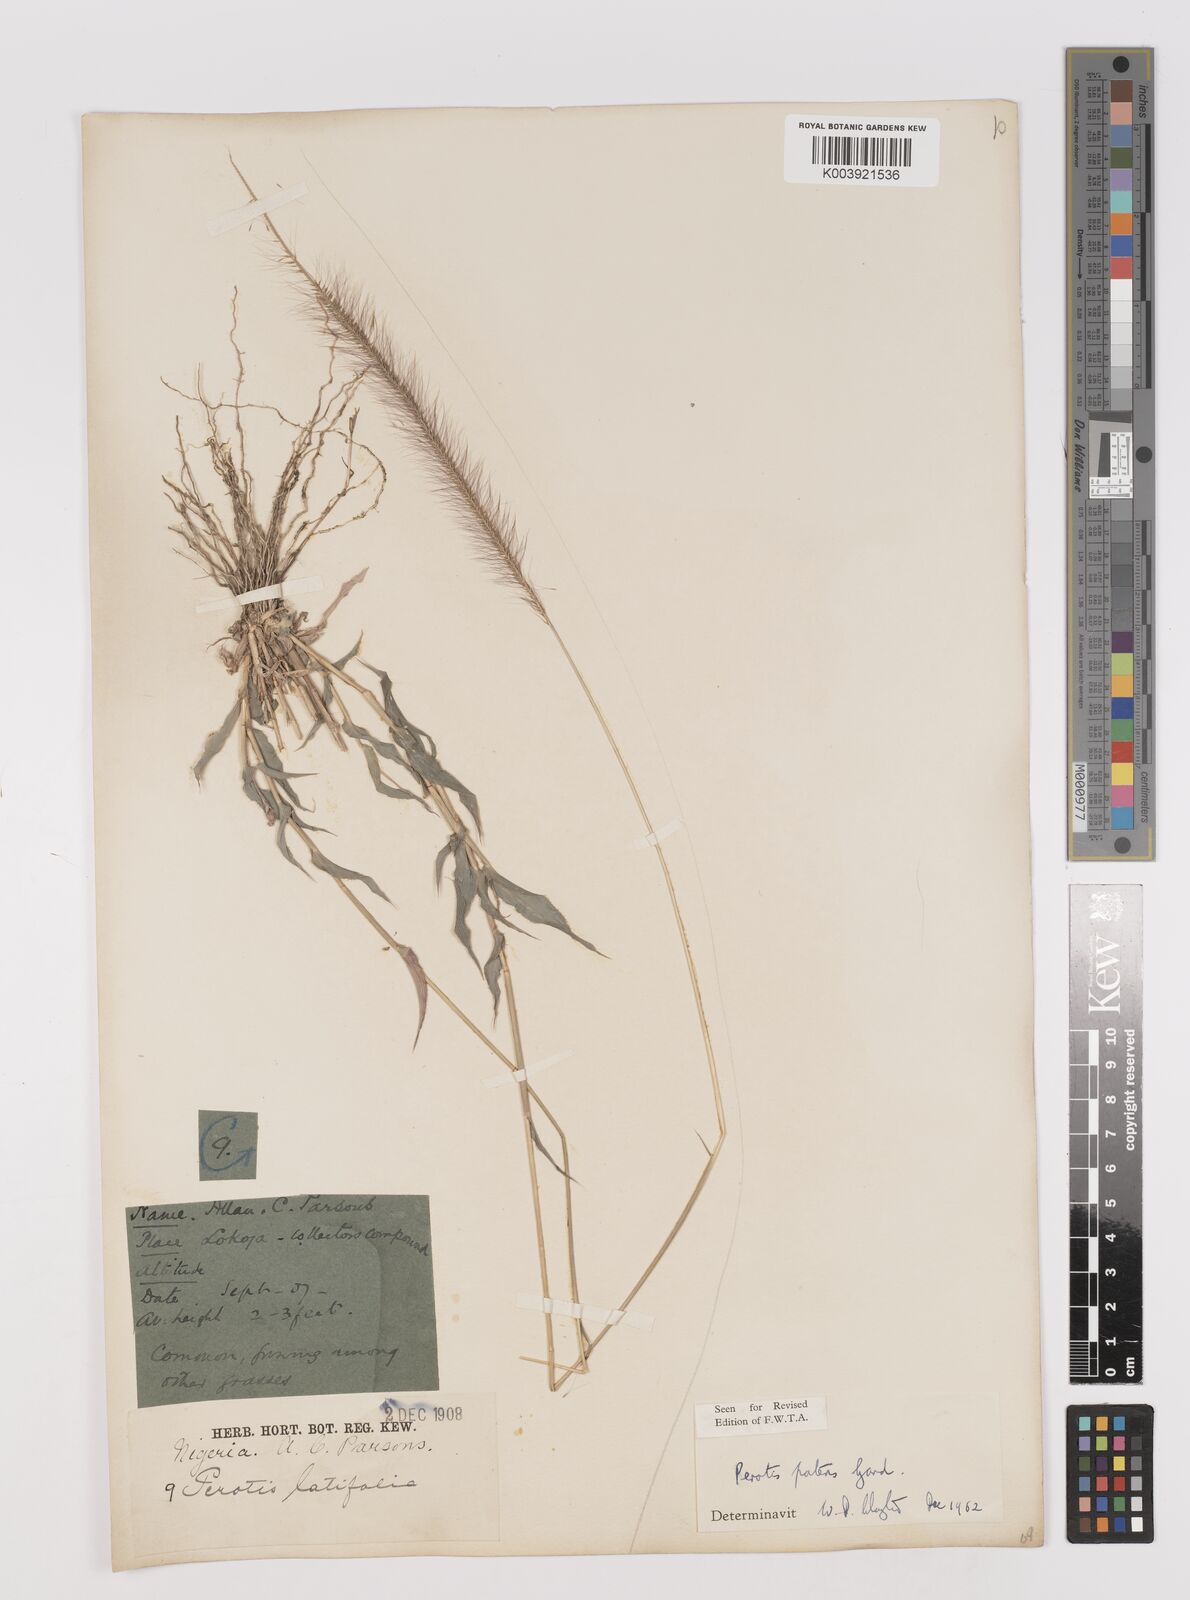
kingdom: Plantae
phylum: Tracheophyta
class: Liliopsida
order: Poales
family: Poaceae
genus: Perotis
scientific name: Perotis patens
